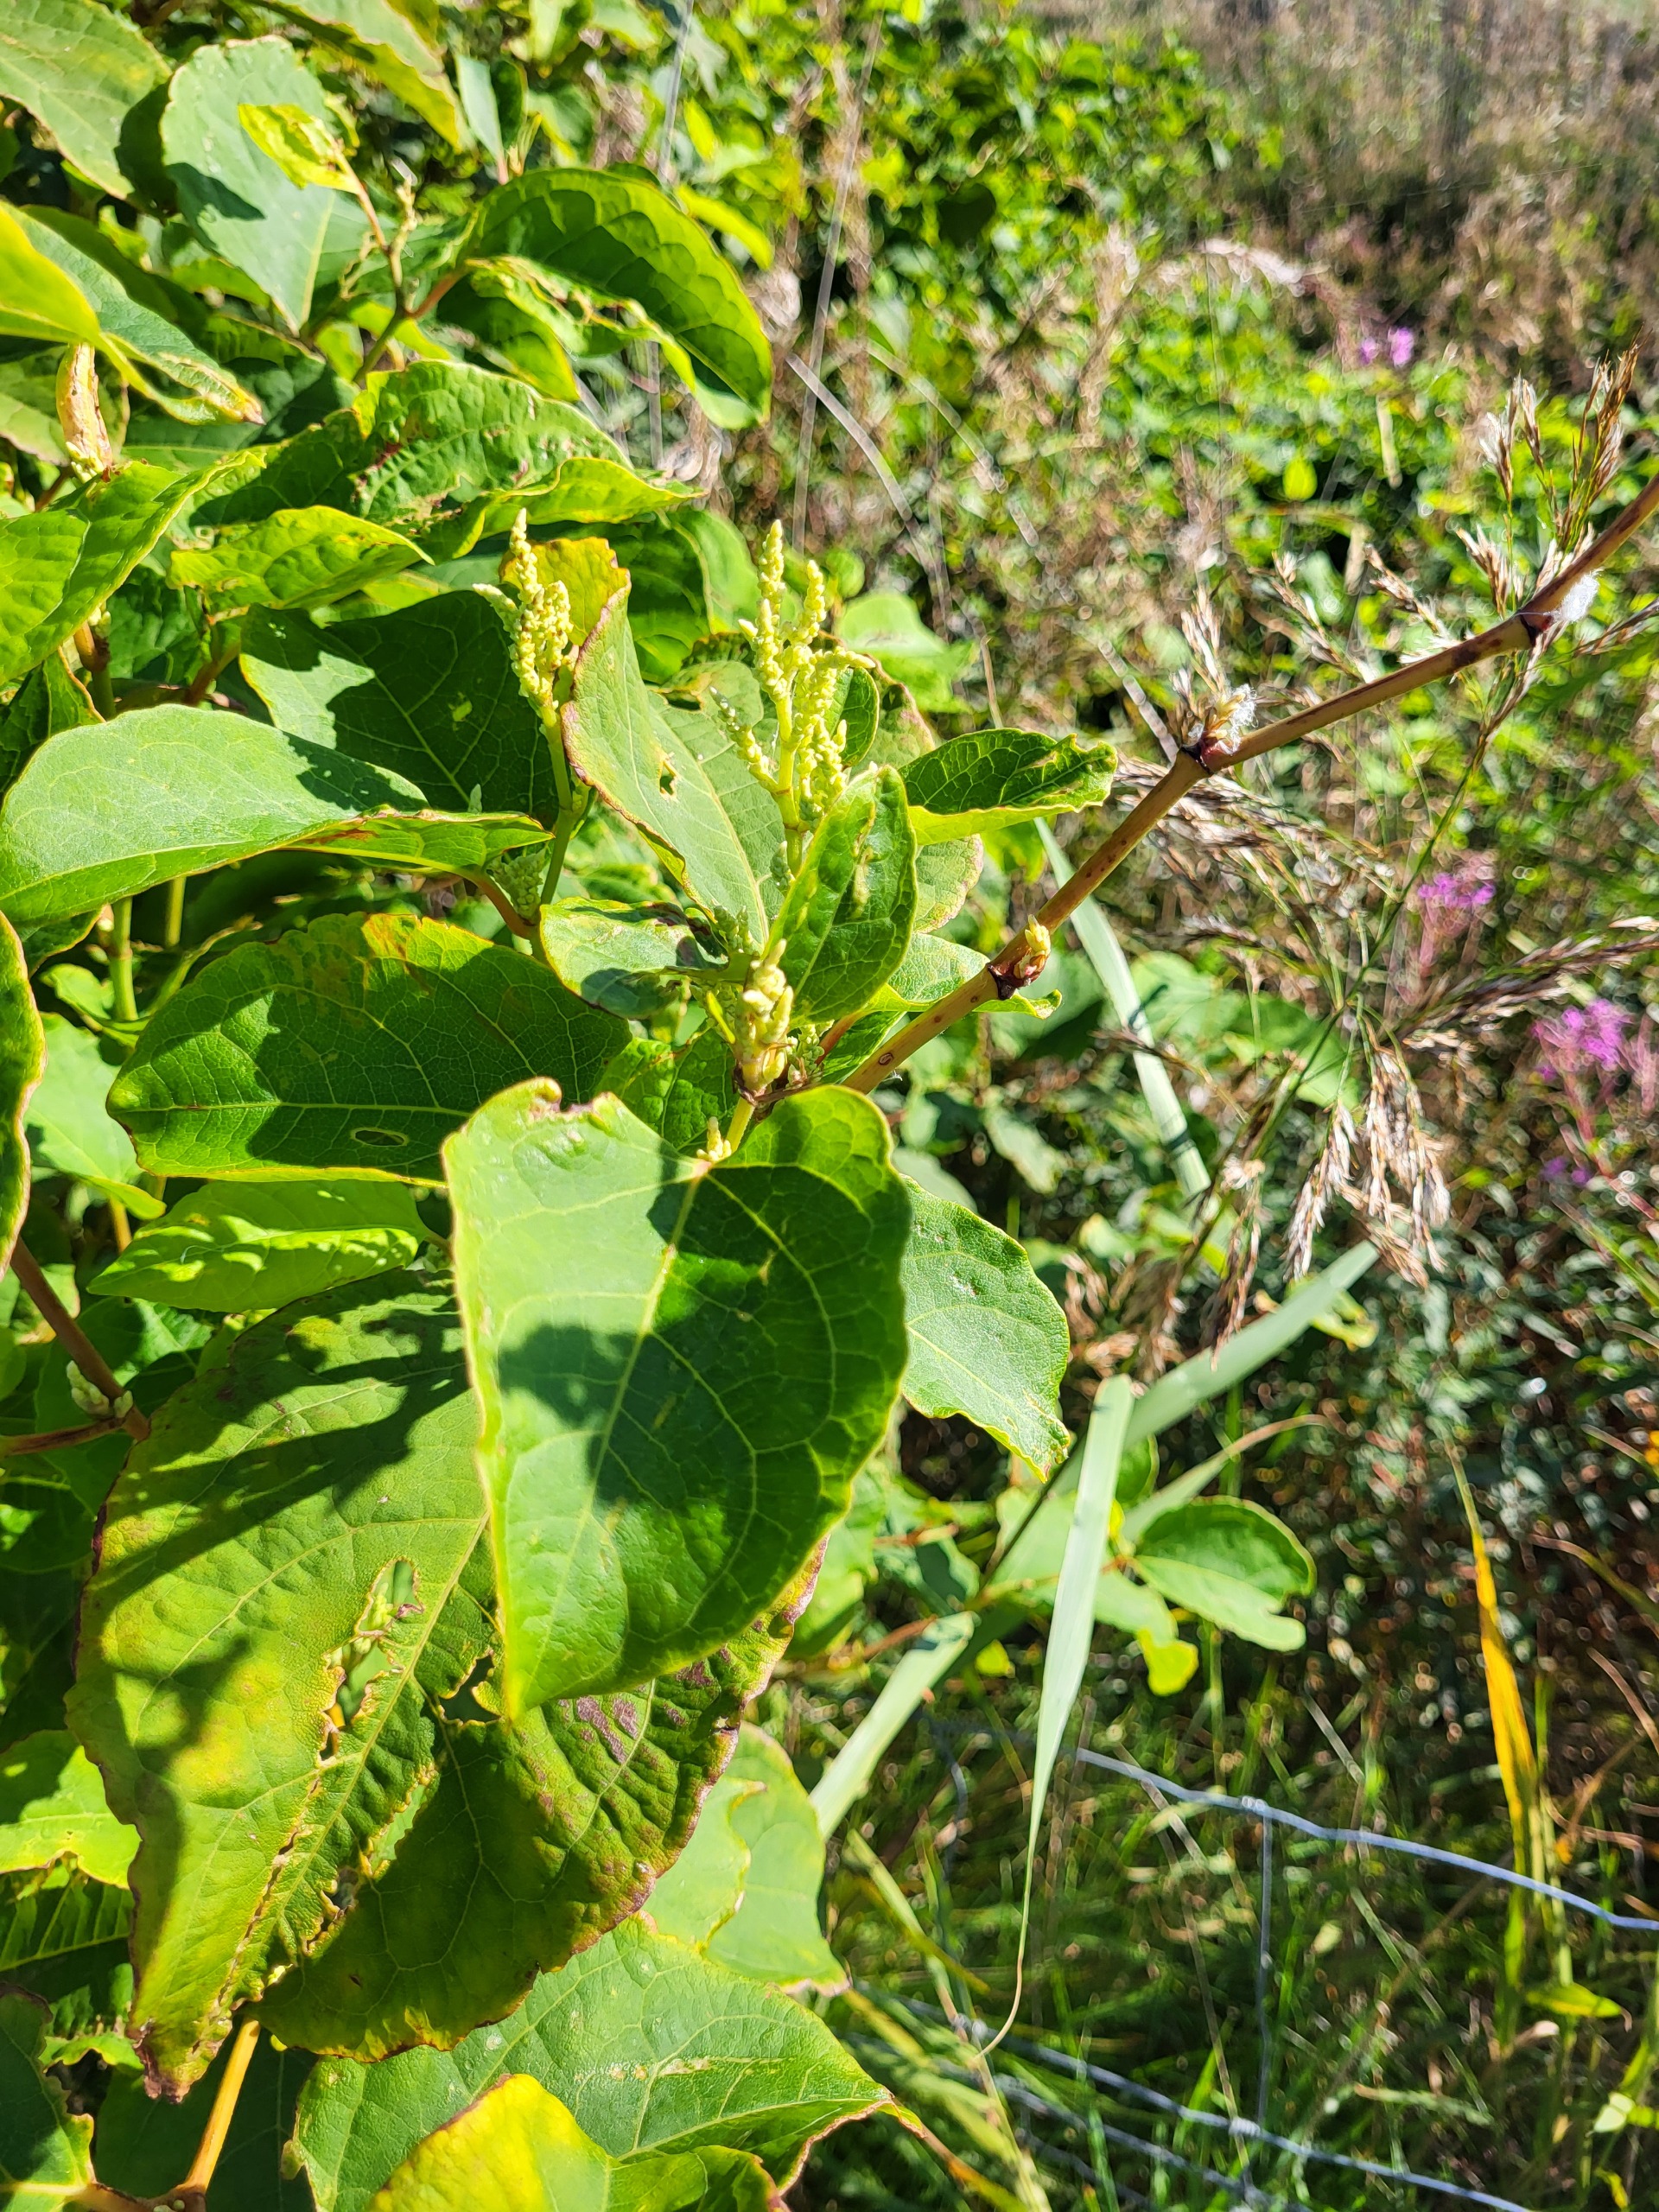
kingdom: Plantae
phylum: Tracheophyta
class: Magnoliopsida
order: Caryophyllales
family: Polygonaceae
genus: Reynoutria
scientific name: Reynoutria japonica
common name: Japan-pileurt
